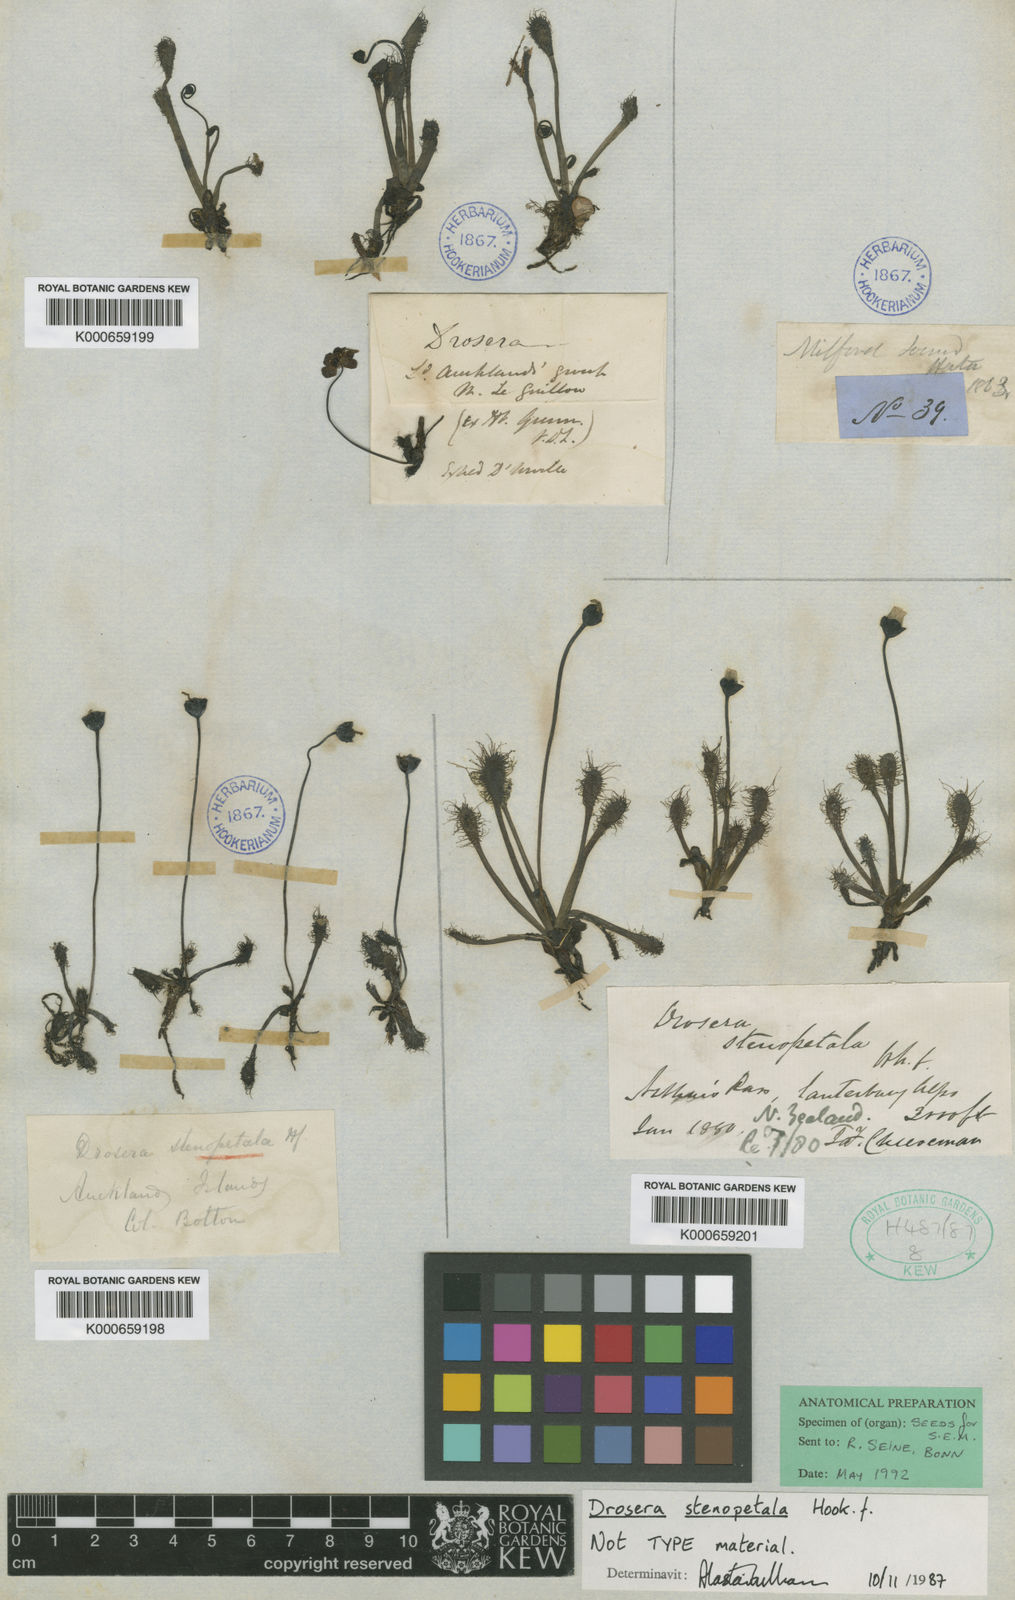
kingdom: Plantae
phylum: Tracheophyta
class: Magnoliopsida
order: Caryophyllales
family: Droseraceae
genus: Drosera
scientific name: Drosera stenopetala
